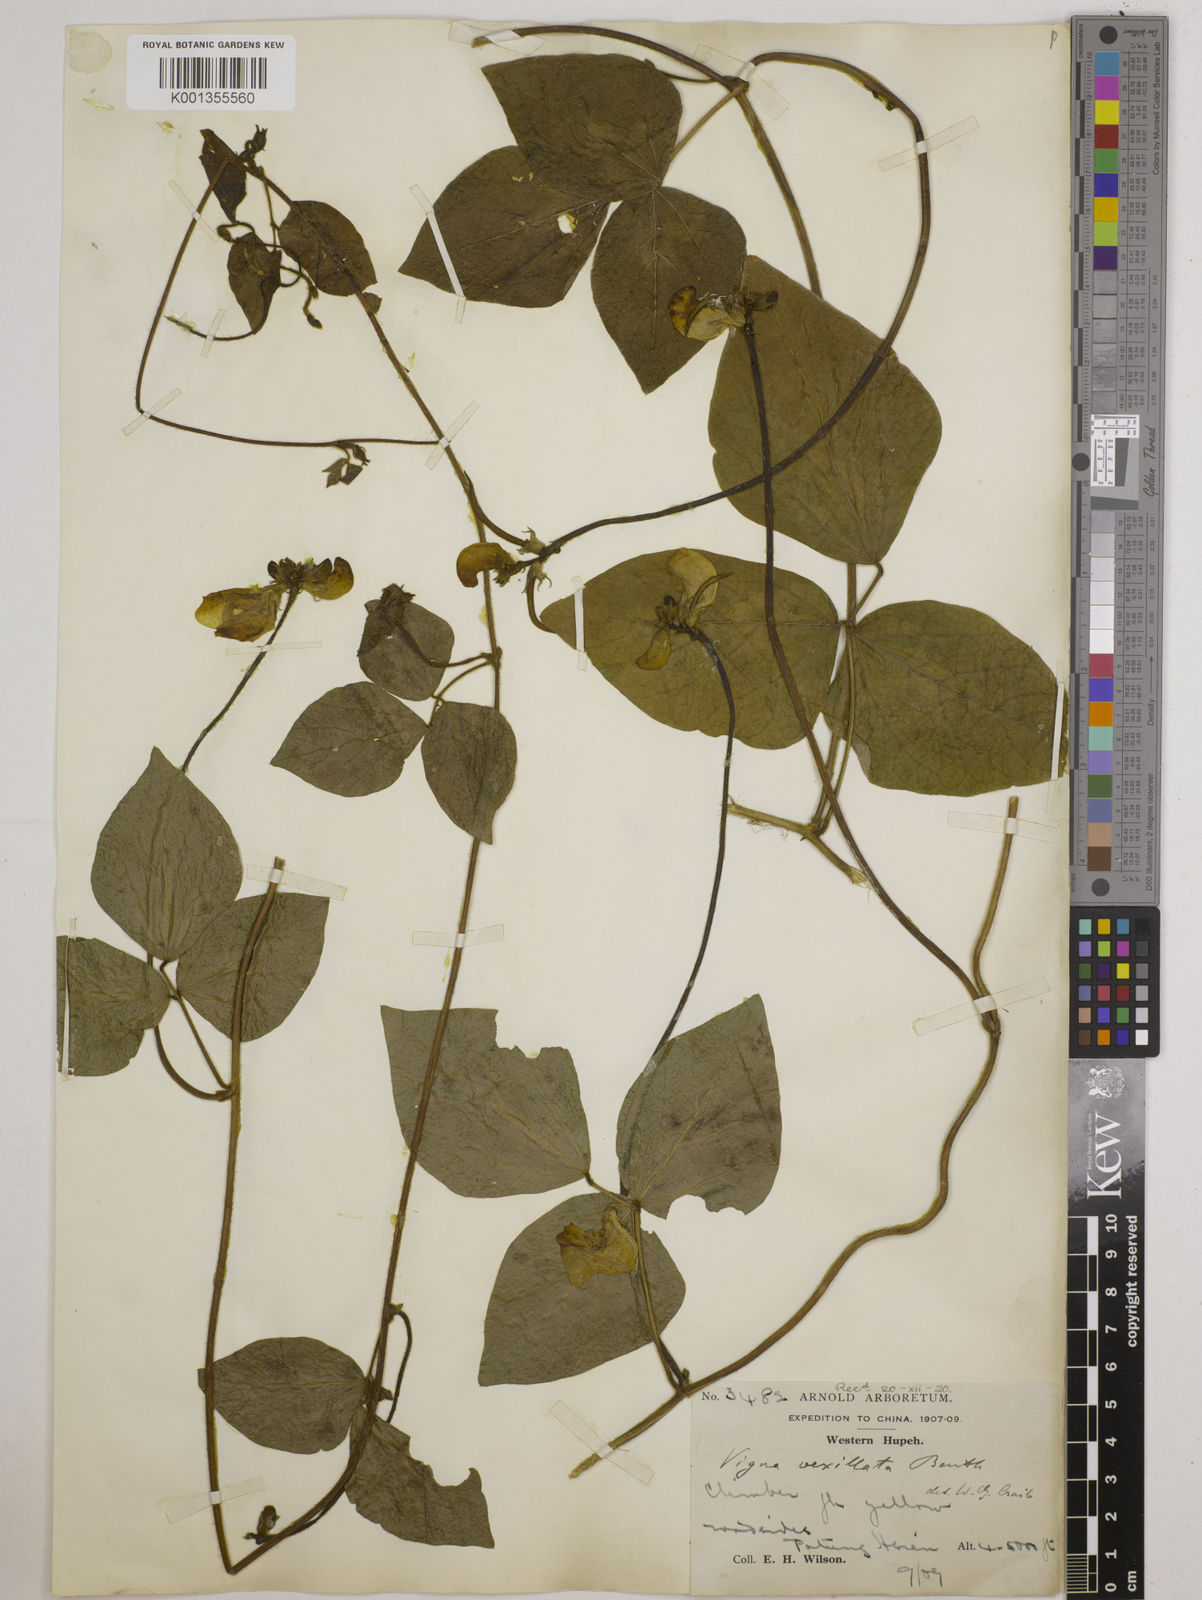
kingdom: Plantae
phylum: Tracheophyta
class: Magnoliopsida
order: Fabales
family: Fabaceae
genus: Vigna
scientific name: Vigna vexillata
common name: Zombi pea
